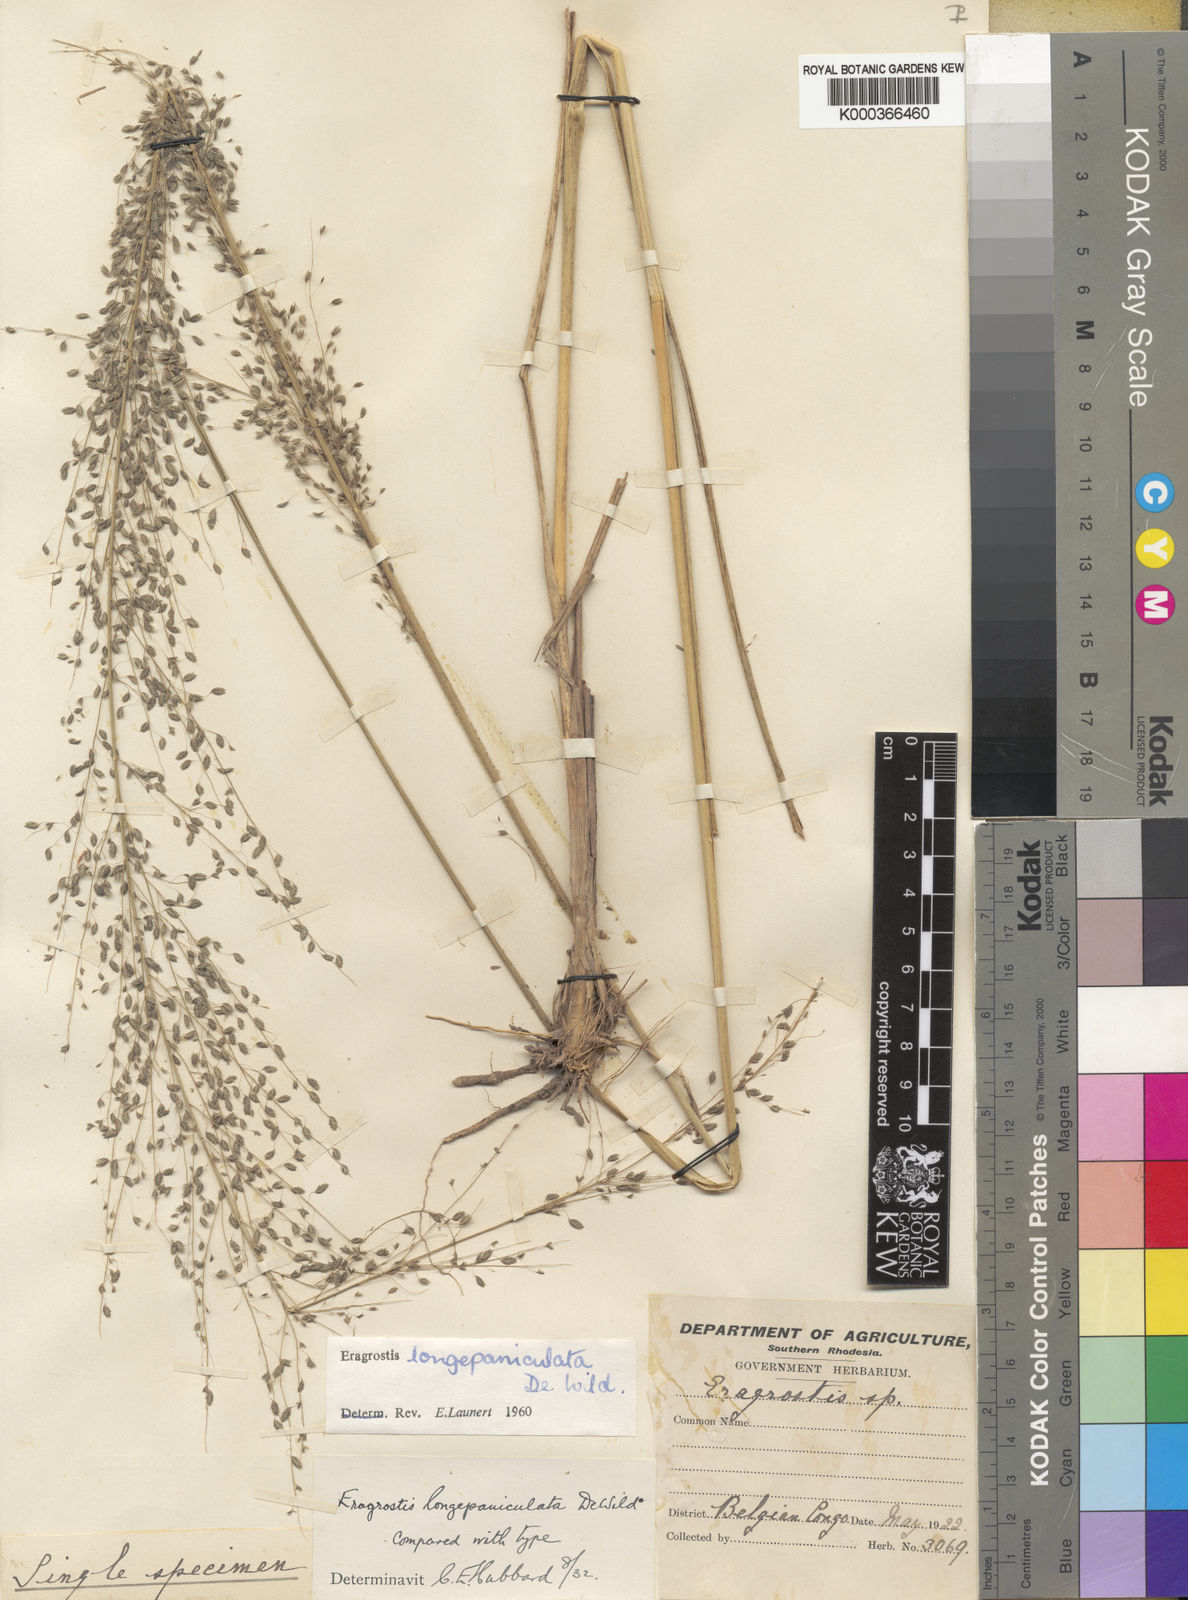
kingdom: Plantae
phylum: Tracheophyta
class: Liliopsida
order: Poales
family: Poaceae
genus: Eragrostis
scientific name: Eragrostis
